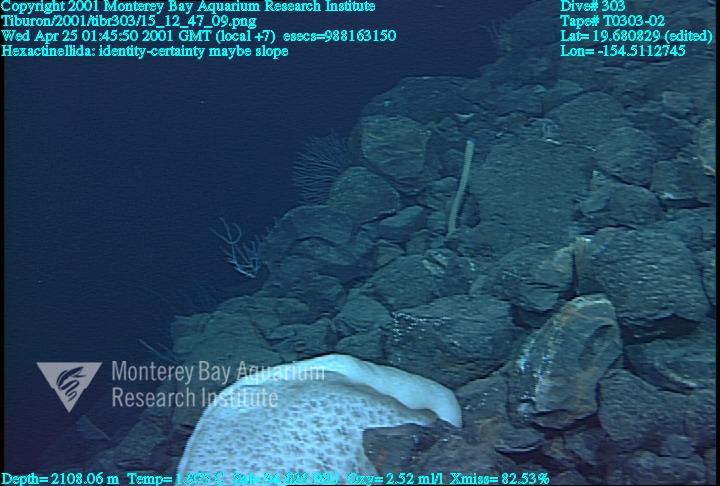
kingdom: Animalia
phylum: Porifera
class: Hexactinellida
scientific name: Hexactinellida
